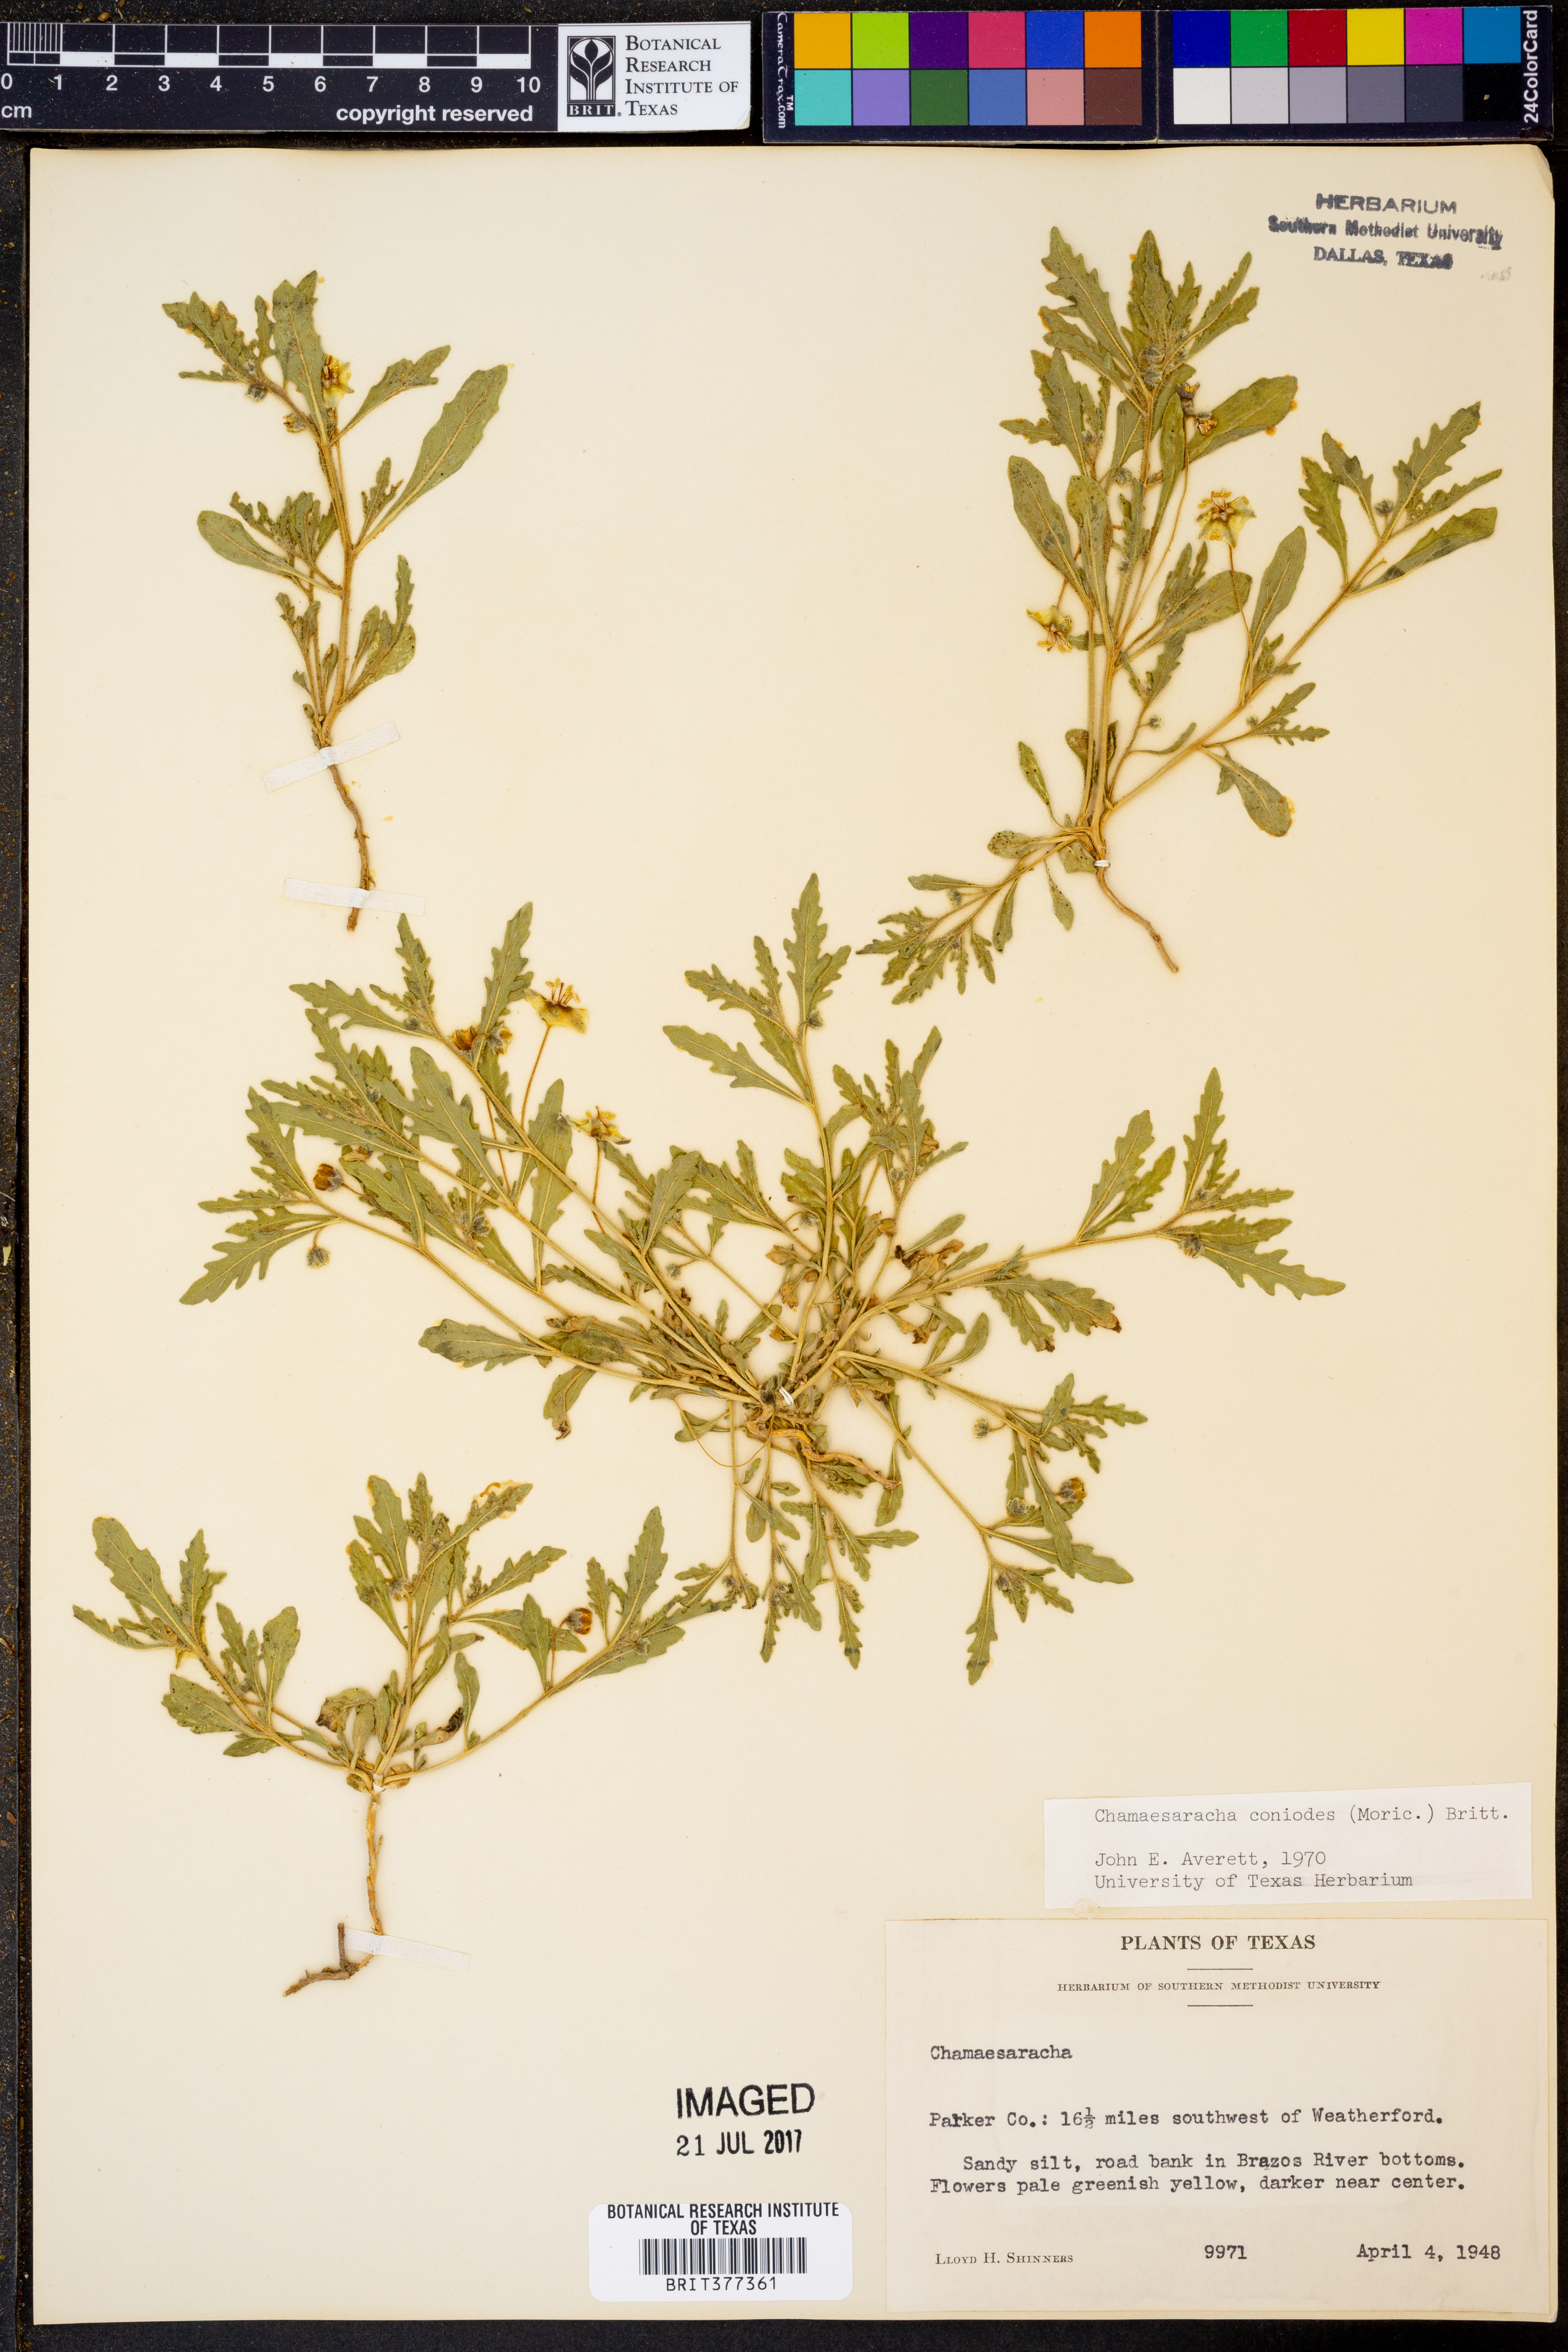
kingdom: Plantae
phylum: Tracheophyta
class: Magnoliopsida
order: Solanales
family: Solanaceae
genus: Chamaesaracha
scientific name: Chamaesaracha coniodes
